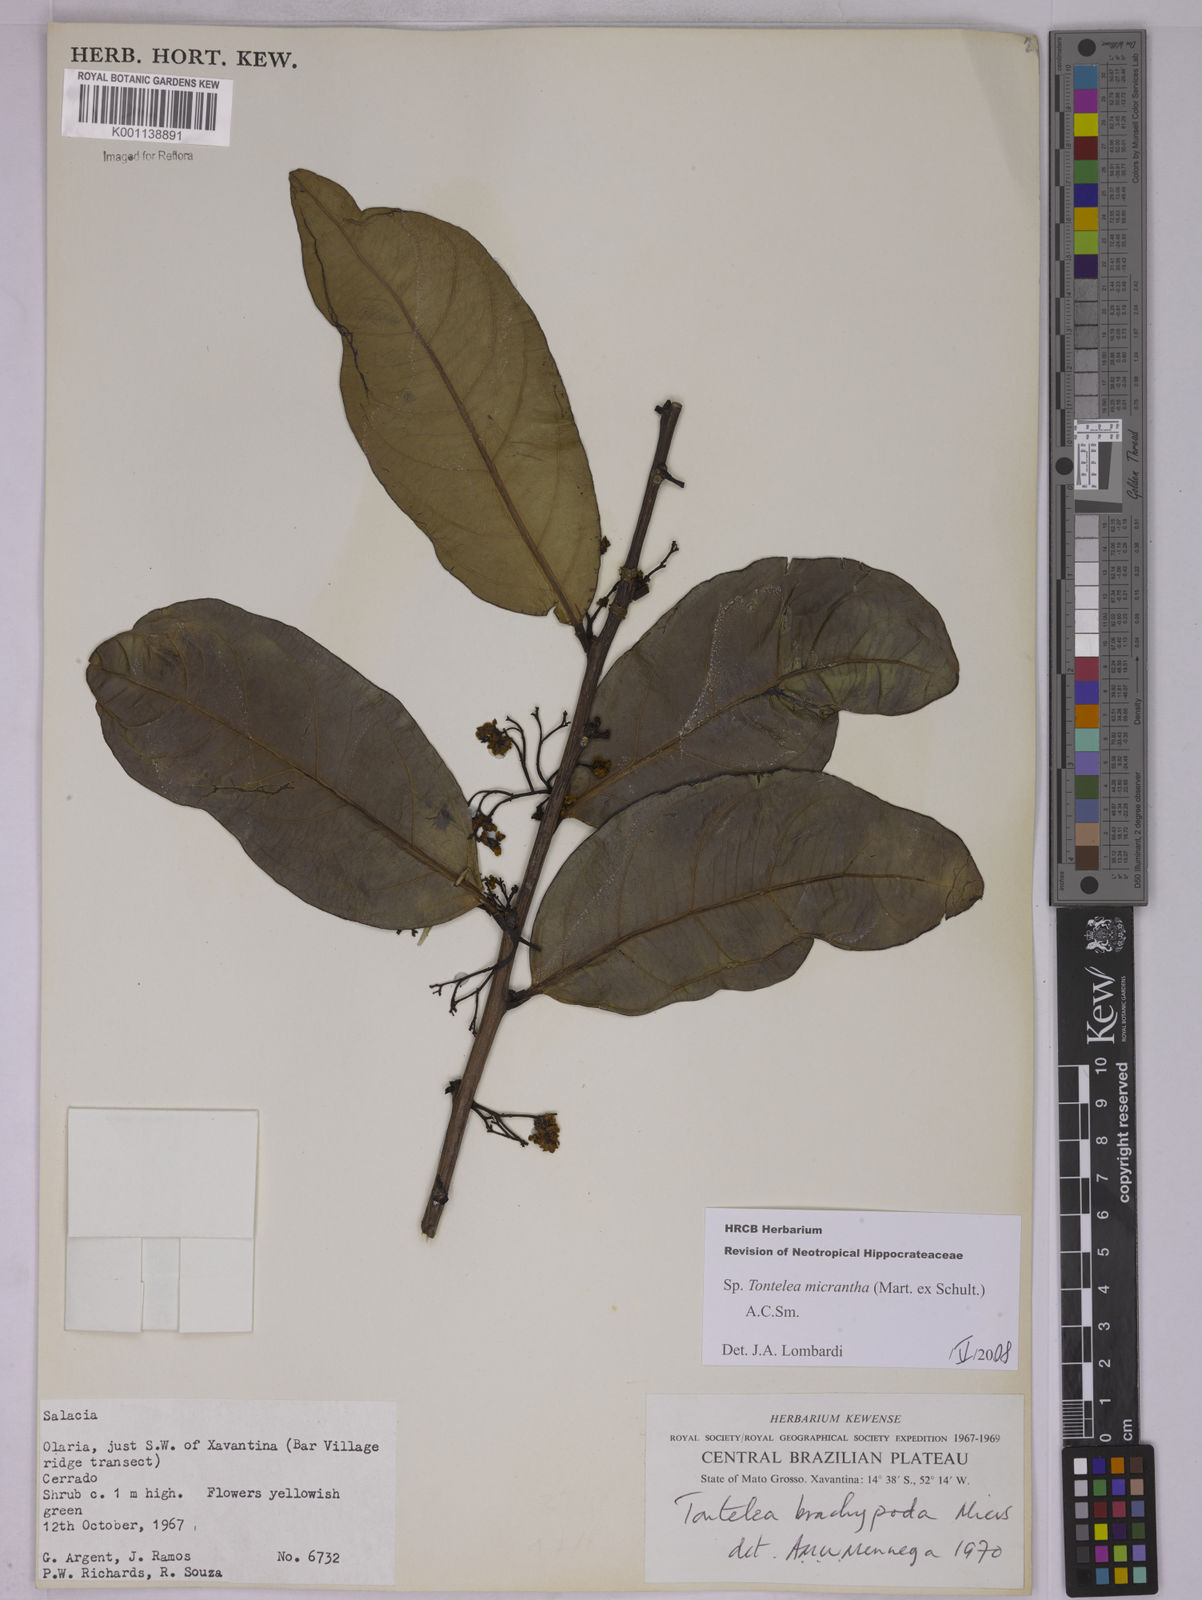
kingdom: Plantae
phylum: Tracheophyta
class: Magnoliopsida
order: Celastrales
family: Celastraceae
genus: Tontelea
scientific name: Tontelea micrantha
